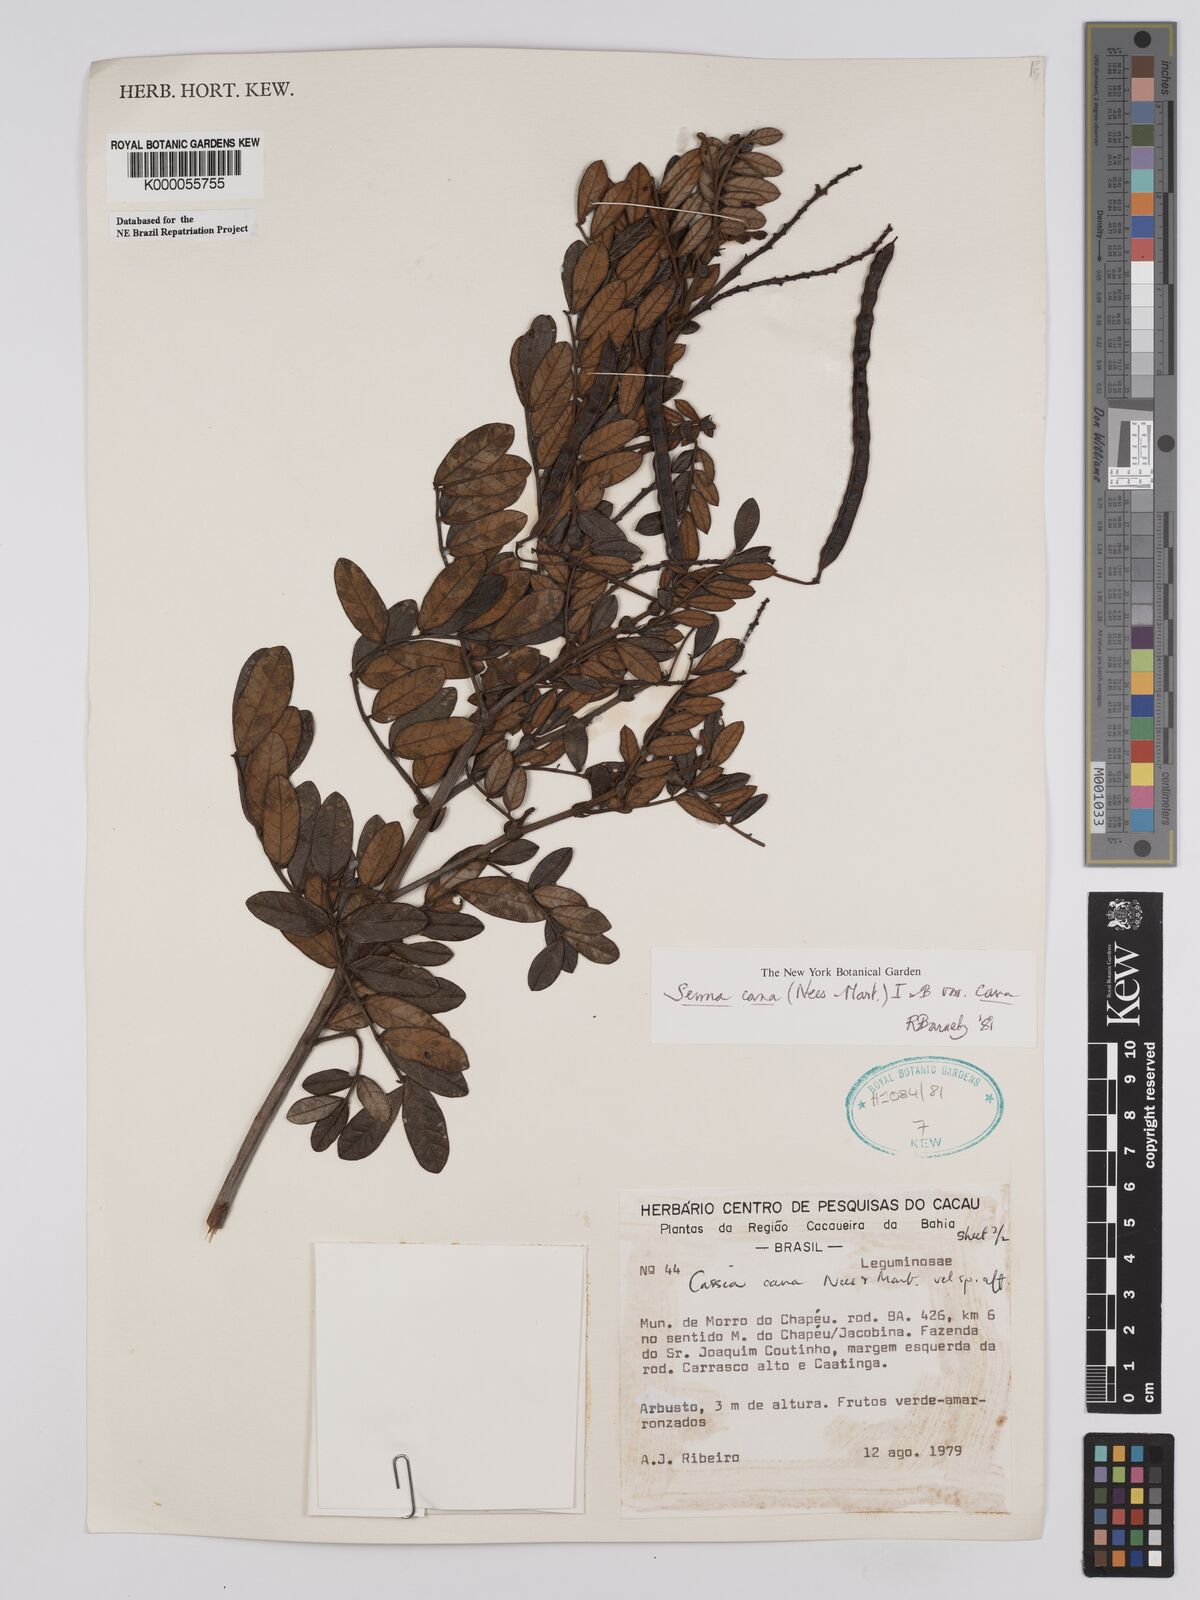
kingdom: Plantae
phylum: Tracheophyta
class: Magnoliopsida
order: Fabales
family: Fabaceae
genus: Senna
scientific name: Senna cana
